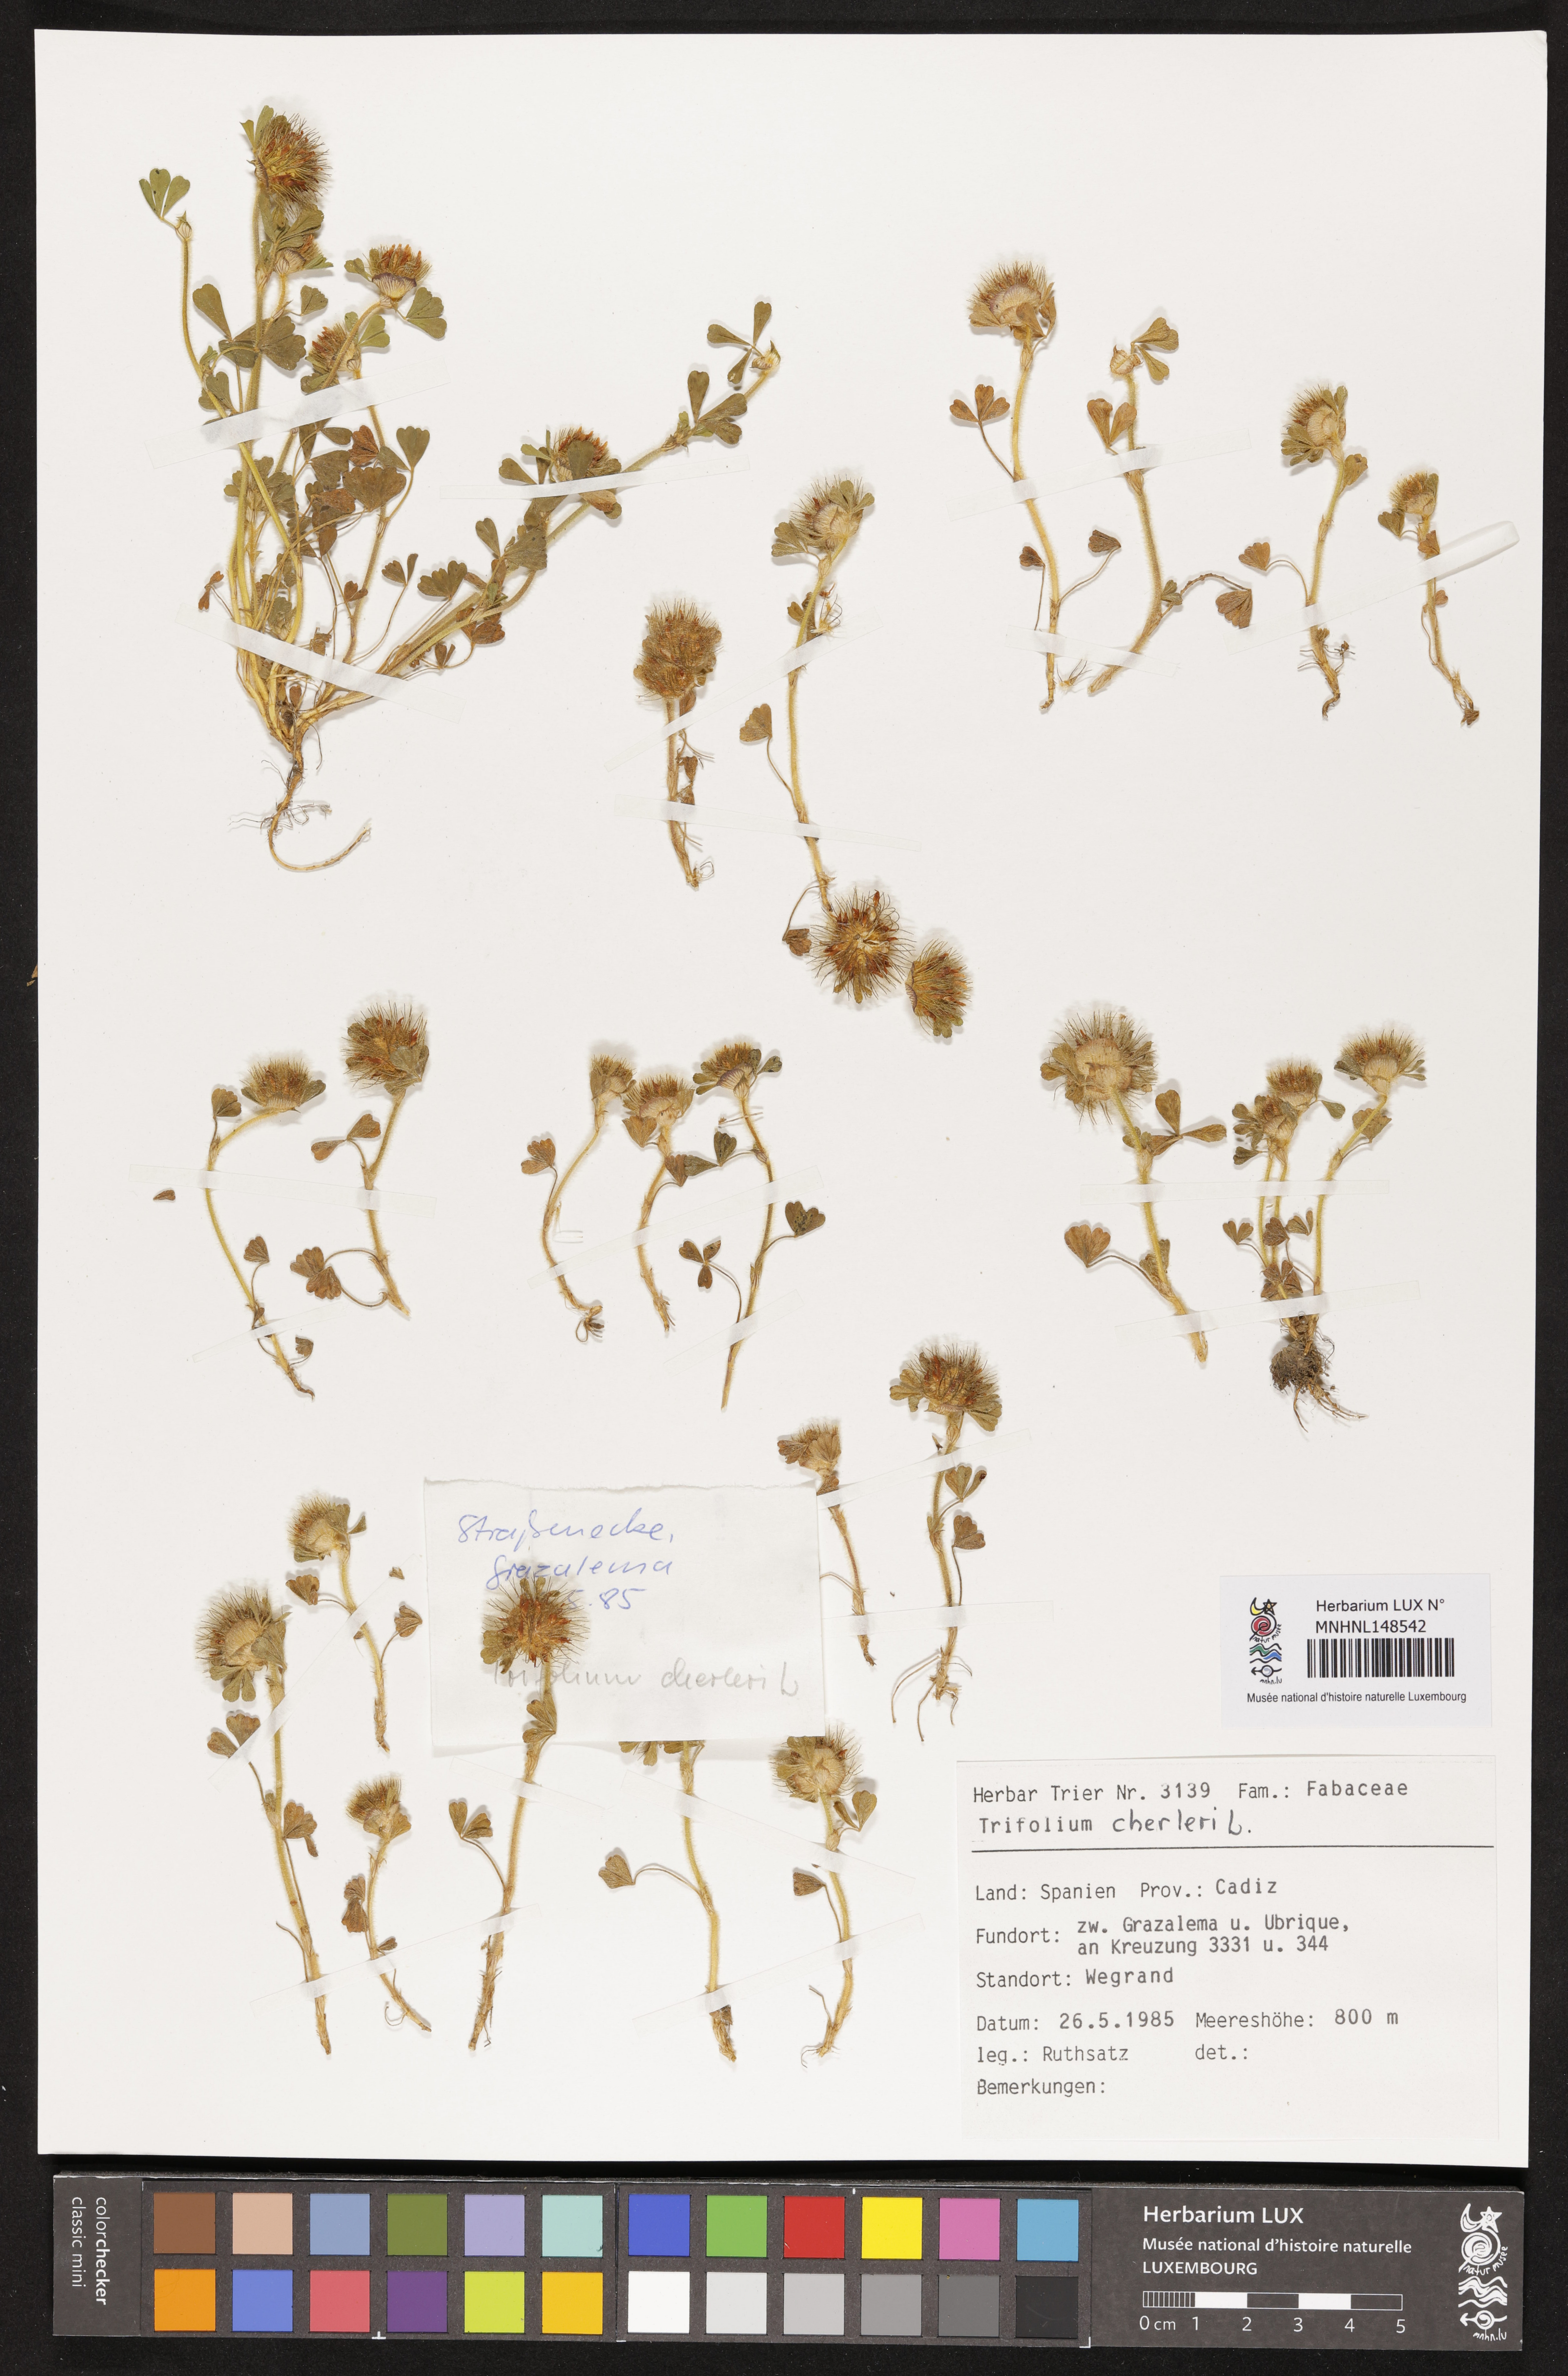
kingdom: Plantae
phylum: Tracheophyta
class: Magnoliopsida
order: Fabales
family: Fabaceae
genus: Trifolium
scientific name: Trifolium cherleri
